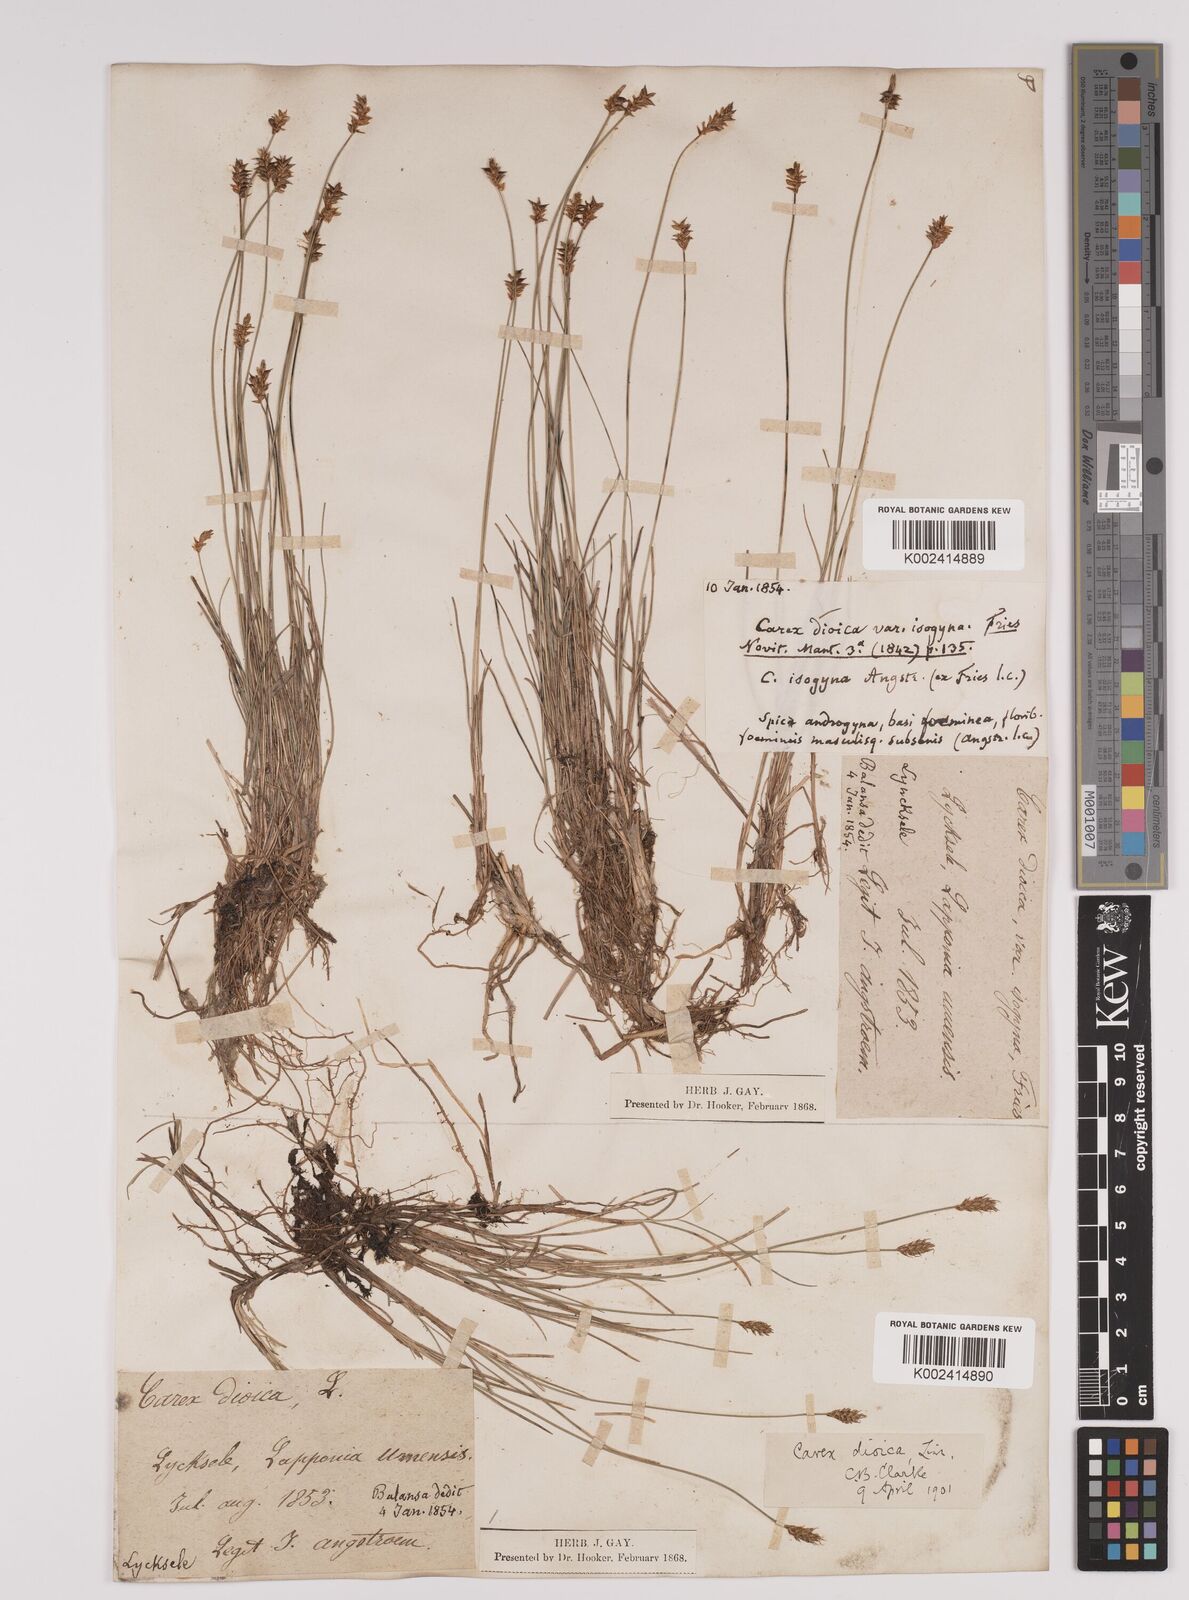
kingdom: Plantae
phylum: Tracheophyta
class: Liliopsida
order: Poales
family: Cyperaceae
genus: Carex
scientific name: Carex dioica
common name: Dioecious sedge
